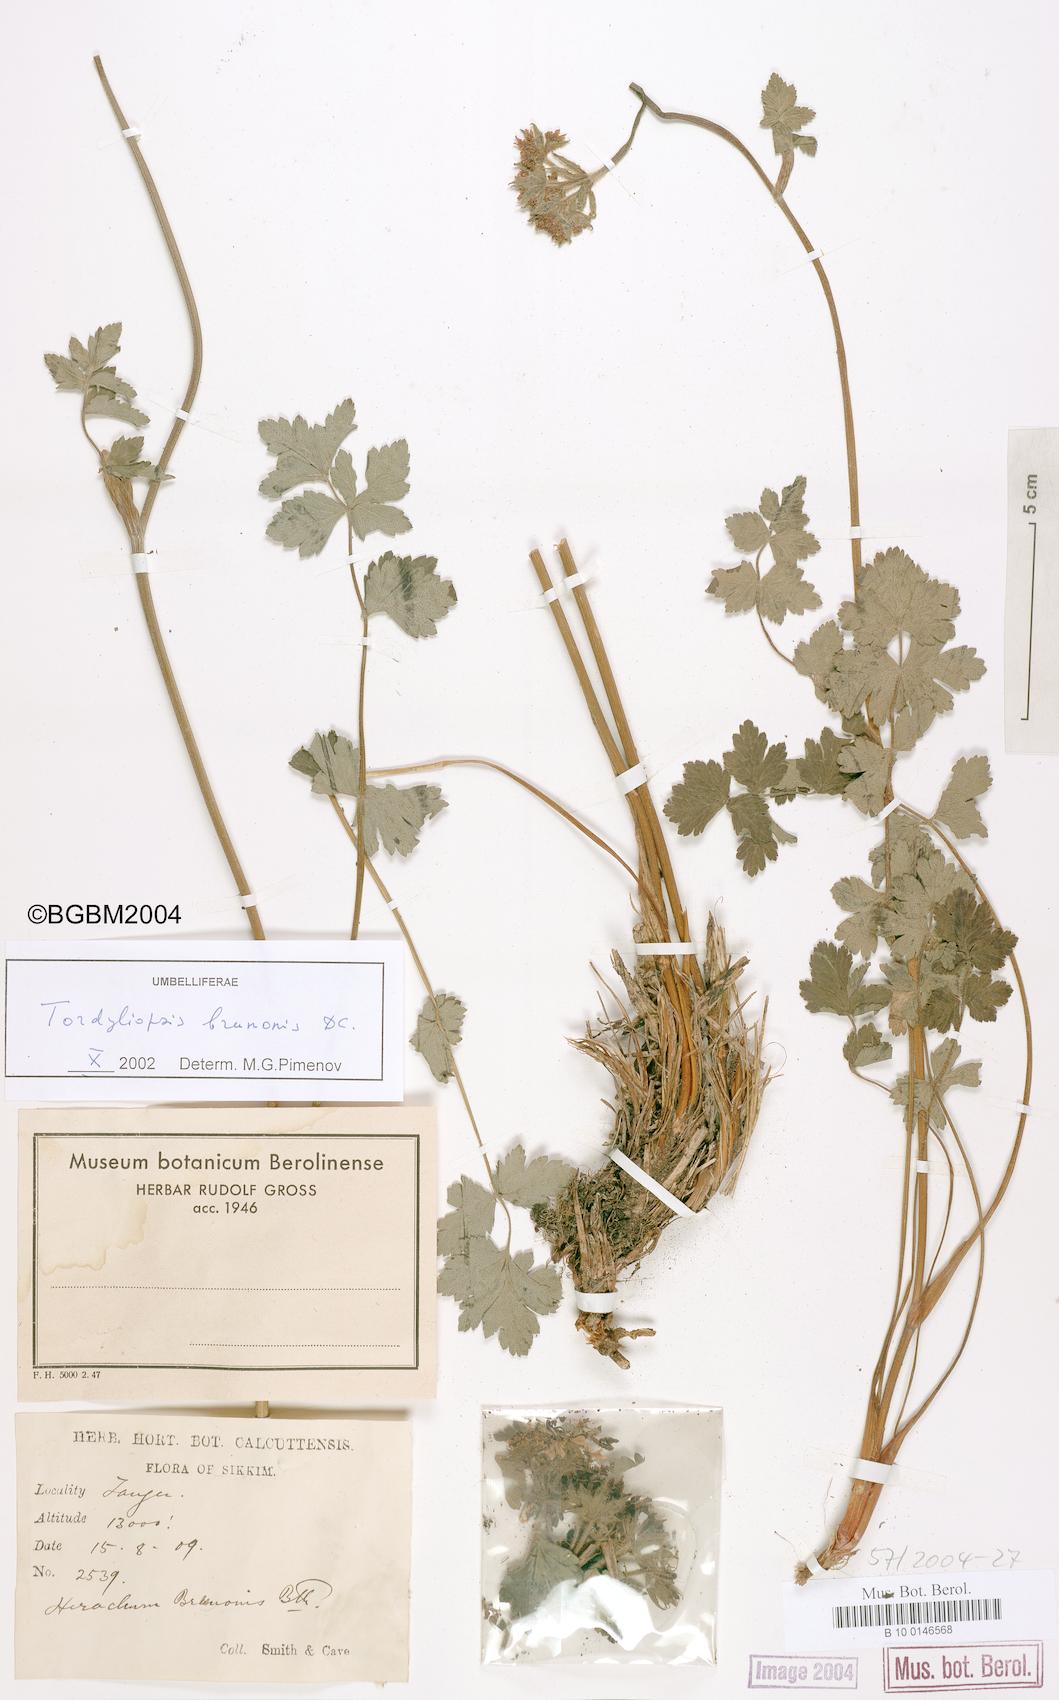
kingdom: Plantae
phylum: Tracheophyta
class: Magnoliopsida
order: Apiales
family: Apiaceae
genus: Tordyliopsis
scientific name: Tordyliopsis brunonis
